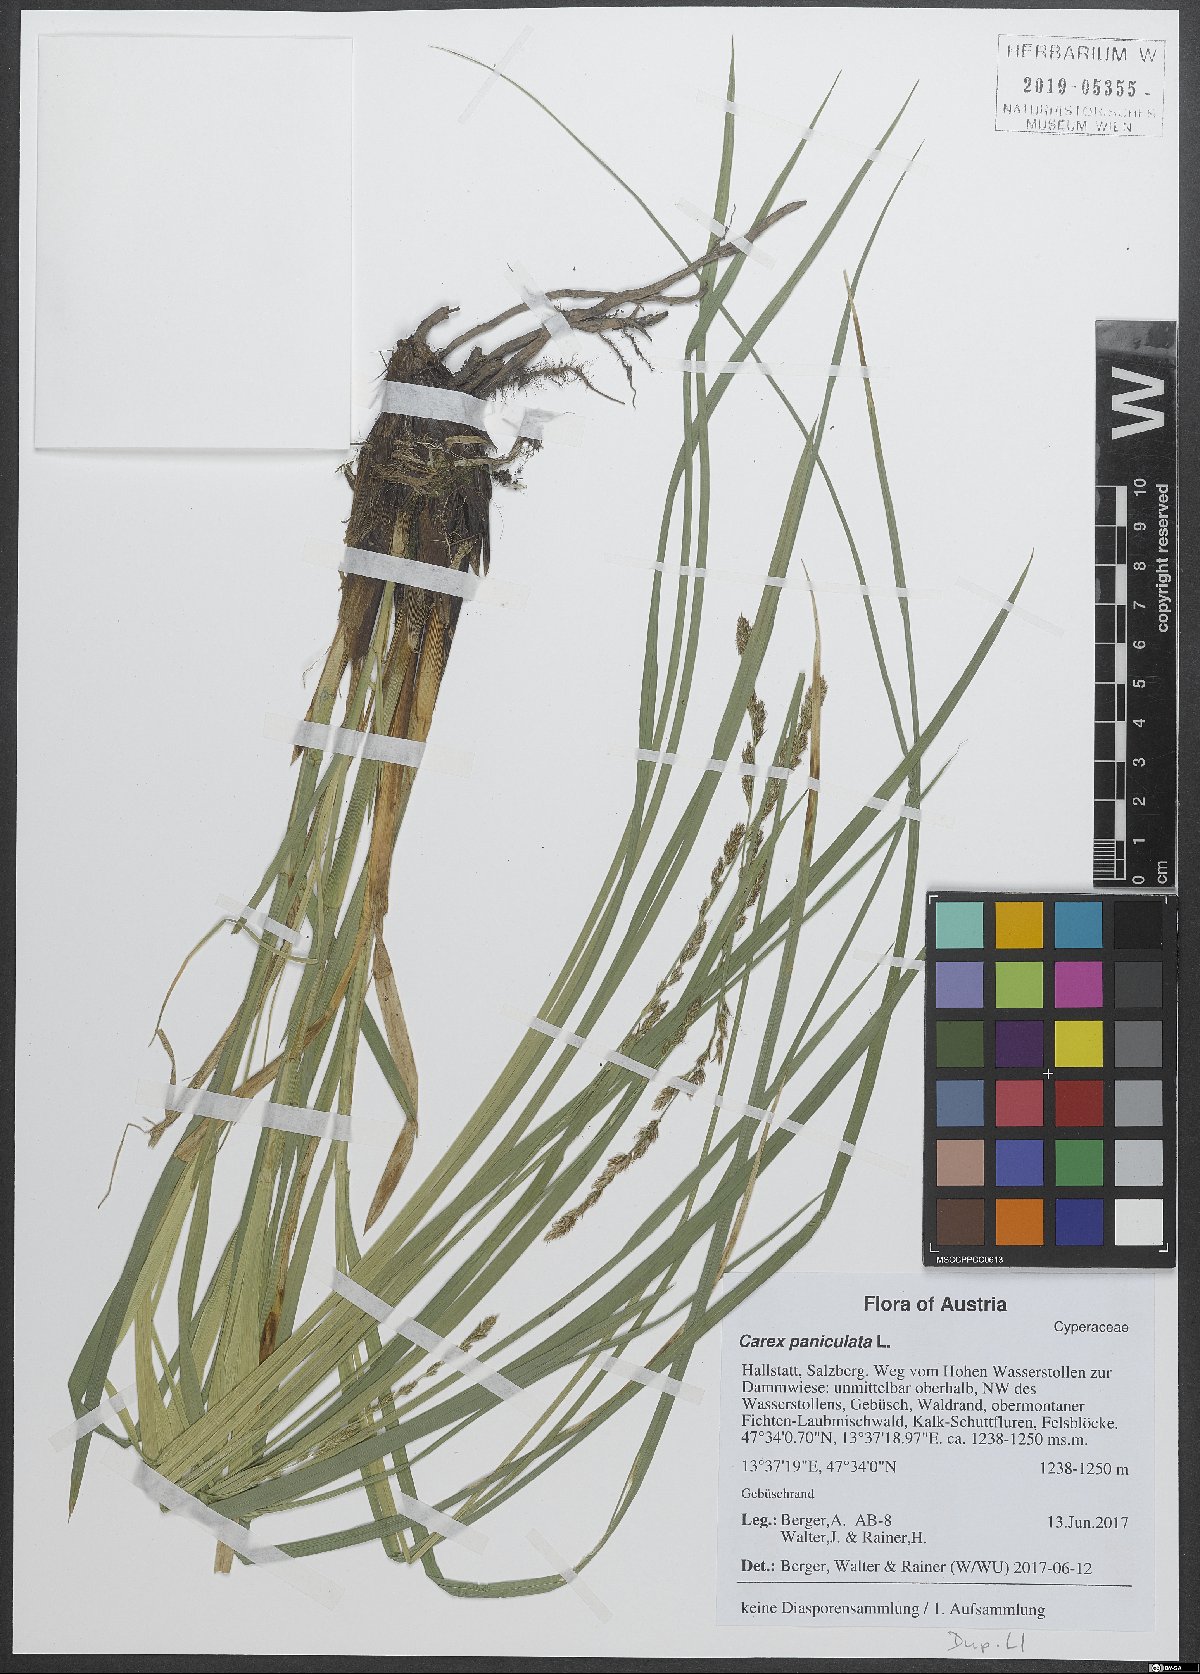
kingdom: Plantae
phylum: Tracheophyta
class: Liliopsida
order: Poales
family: Cyperaceae
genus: Carex
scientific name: Carex paniculata
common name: Greater tussock-sedge
